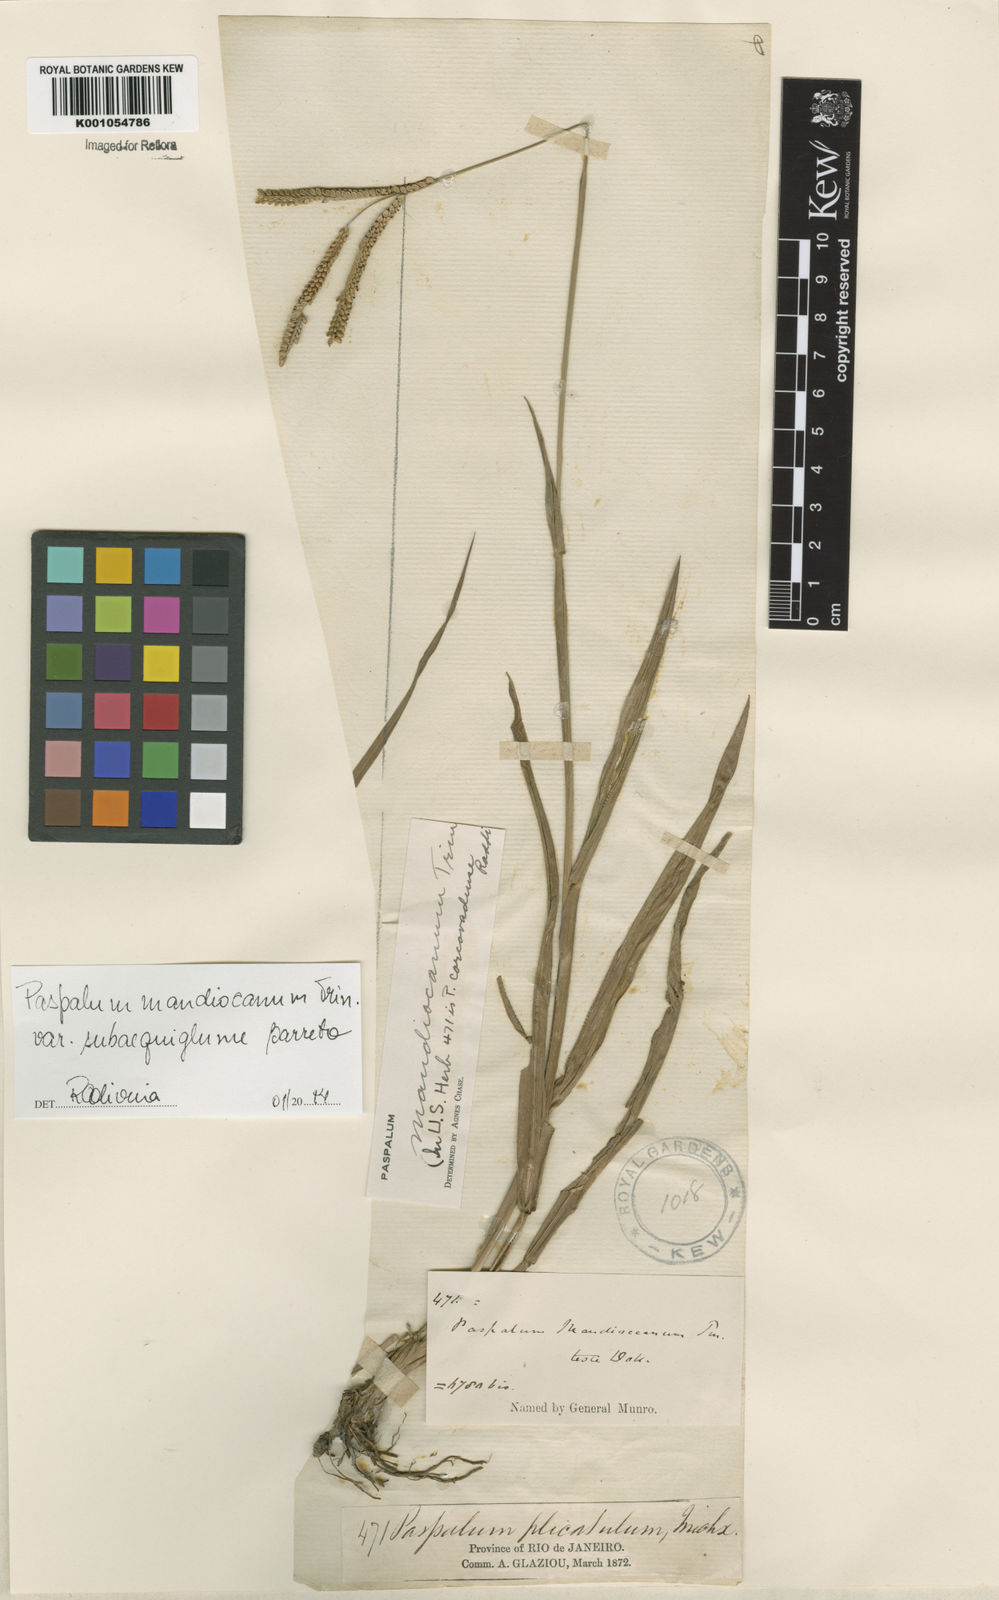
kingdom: Plantae
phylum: Tracheophyta
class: Liliopsida
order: Poales
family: Poaceae
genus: Paspalum
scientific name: Paspalum mandiocanum
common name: Paspalum
